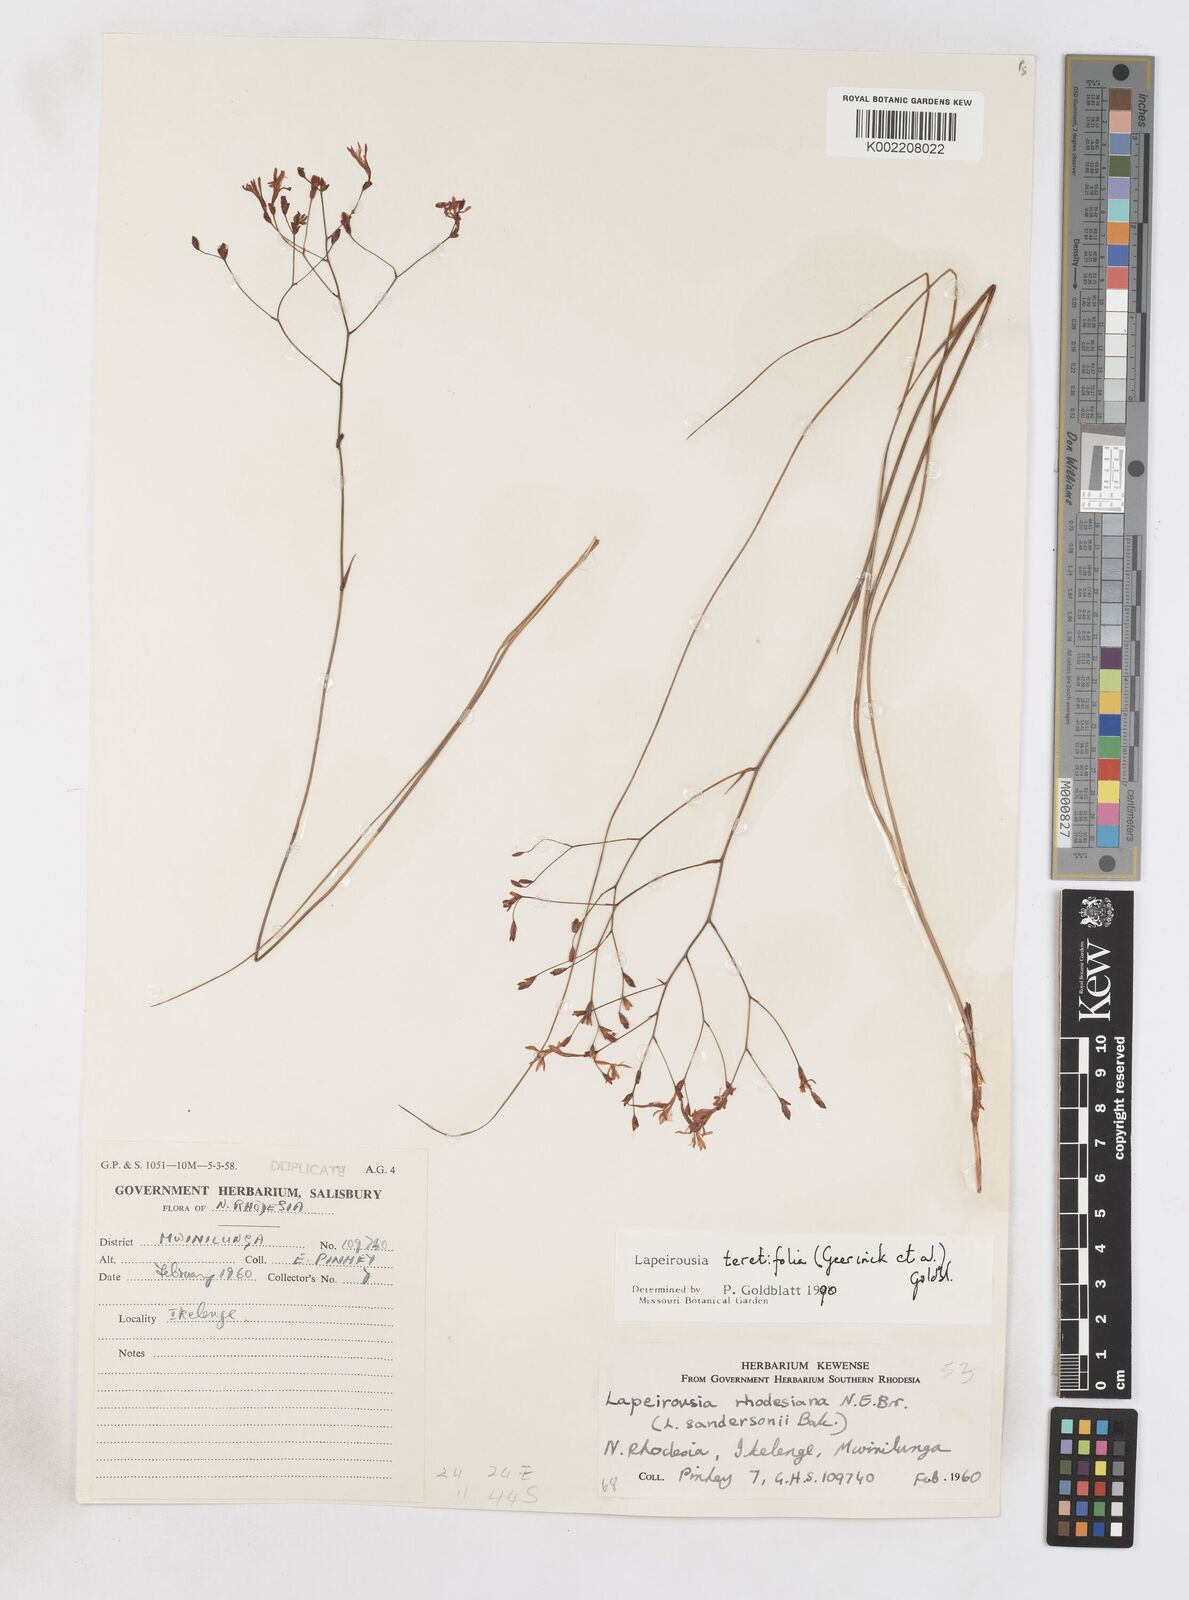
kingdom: Plantae
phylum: Tracheophyta
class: Liliopsida
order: Asparagales
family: Iridaceae
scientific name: Iridaceae
